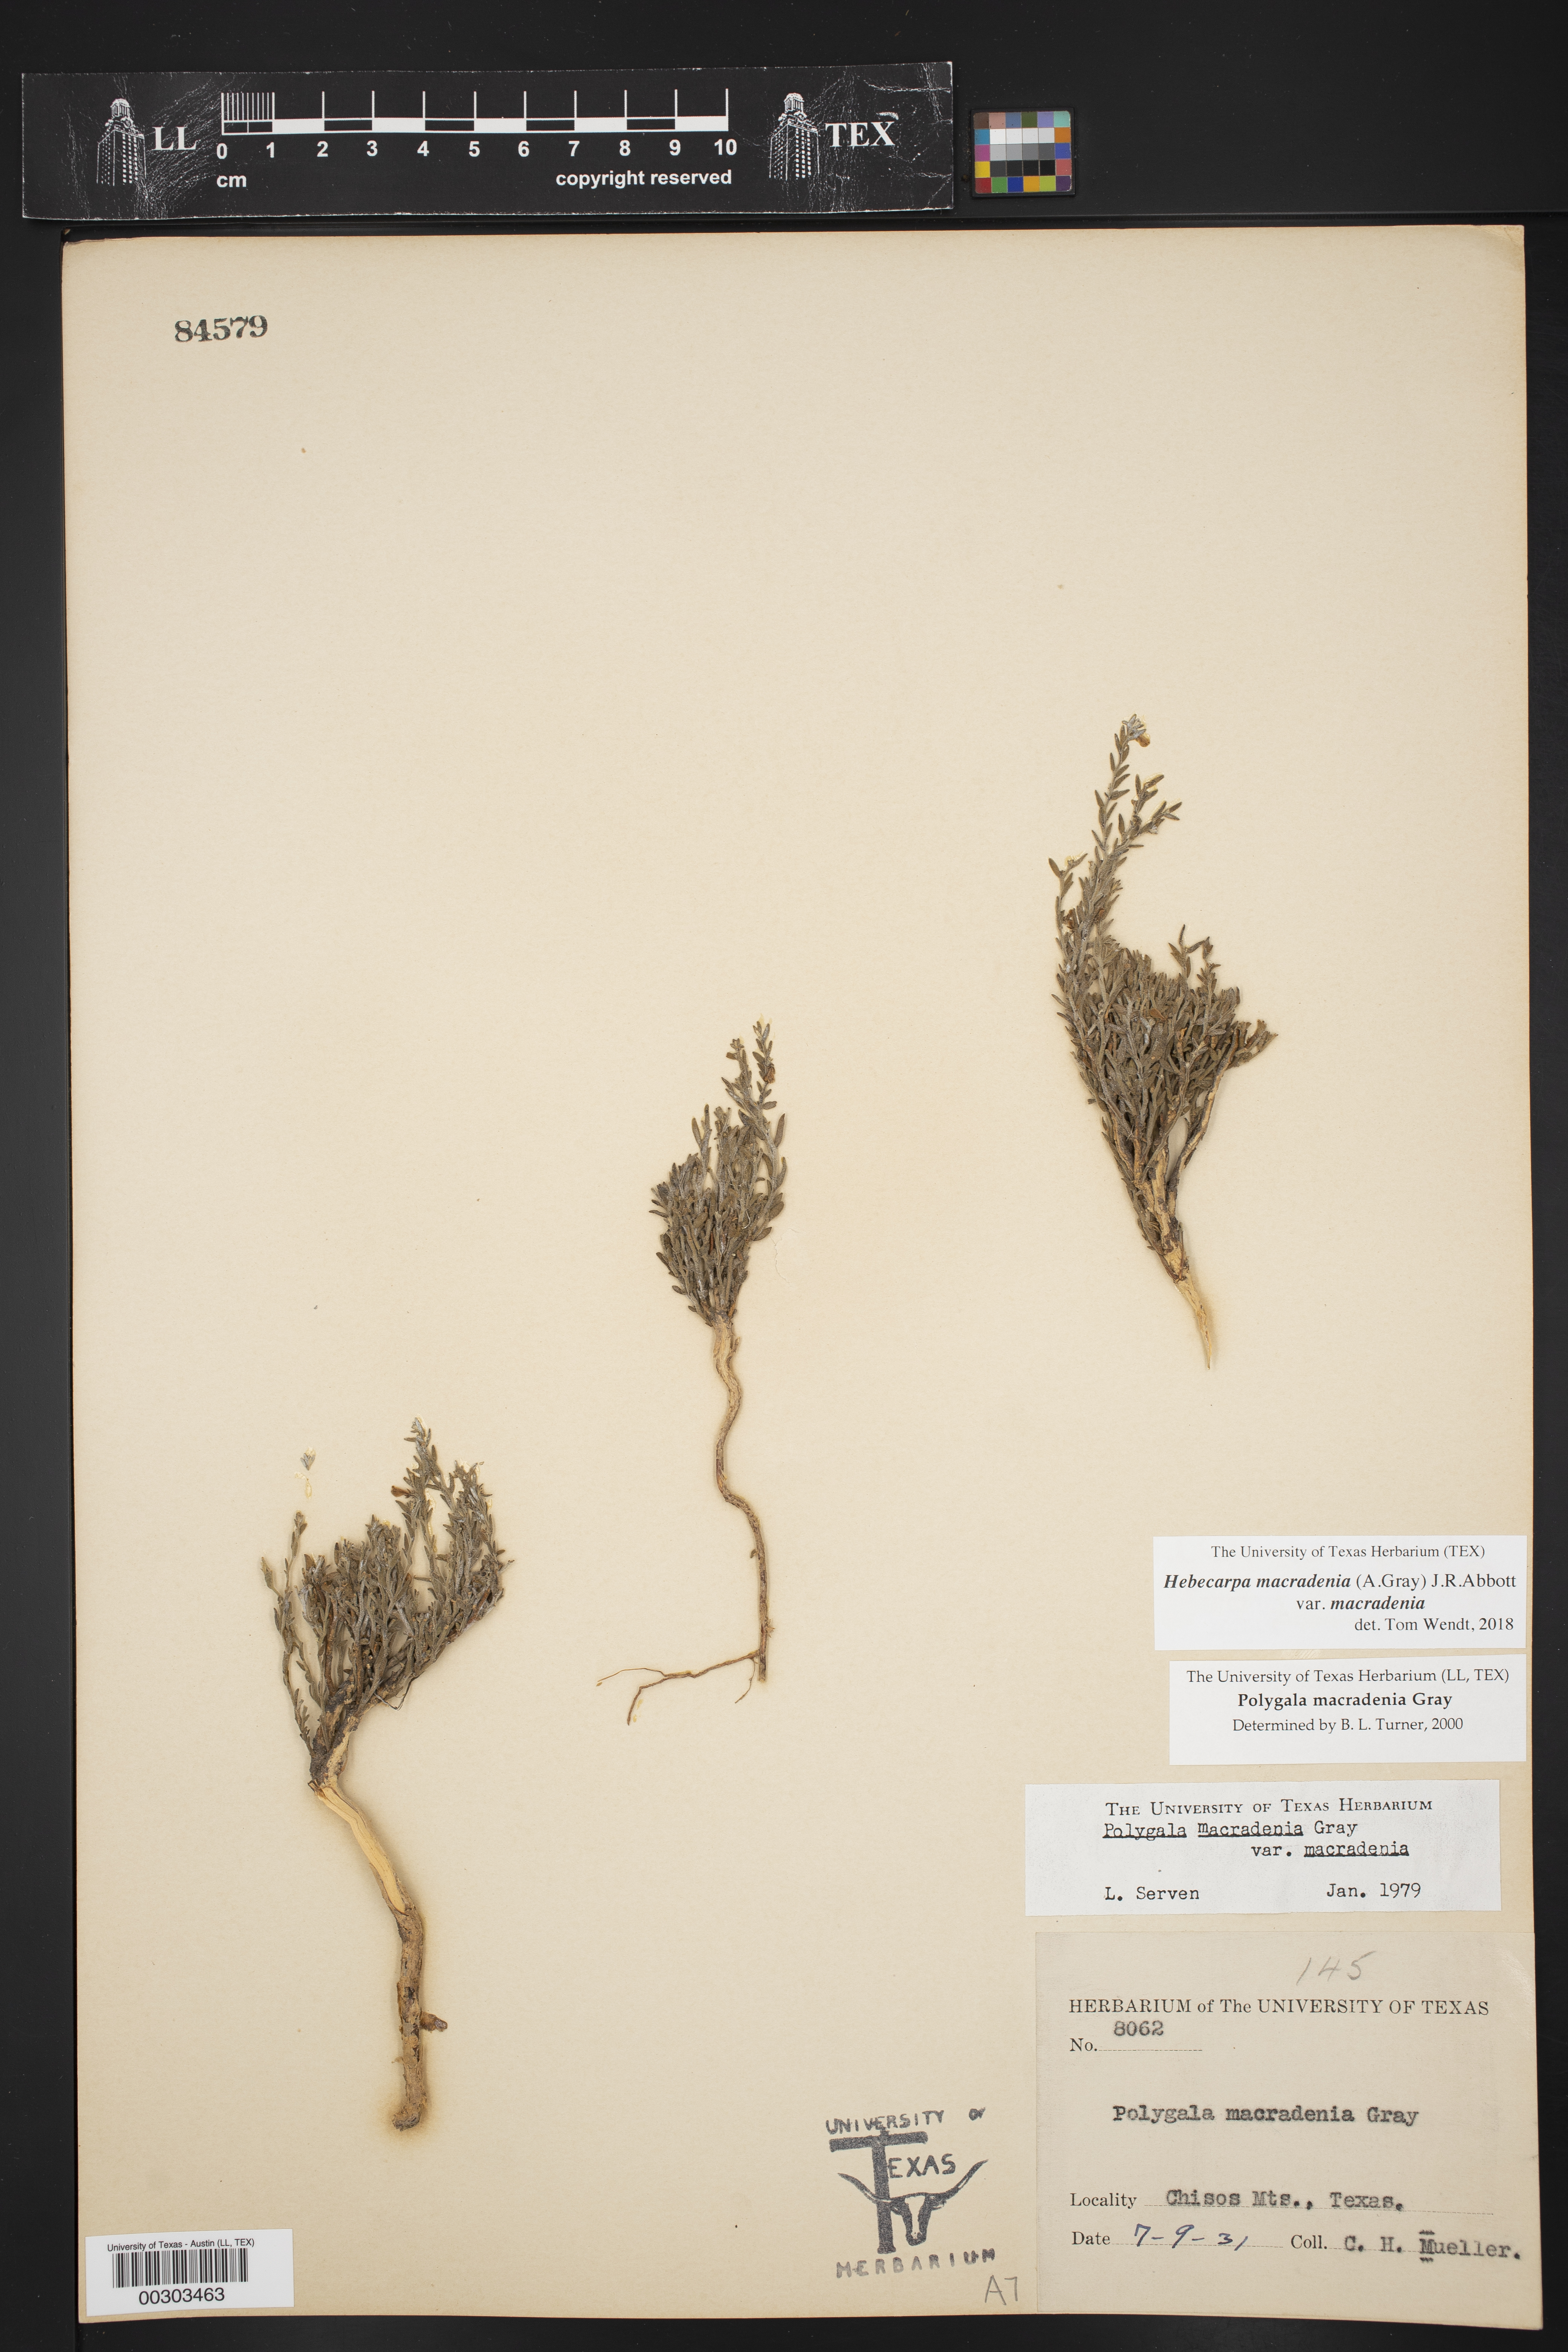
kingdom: Plantae
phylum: Tracheophyta
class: Magnoliopsida
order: Fabales
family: Polygalaceae
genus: Hebecarpa
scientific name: Hebecarpa macradenia
